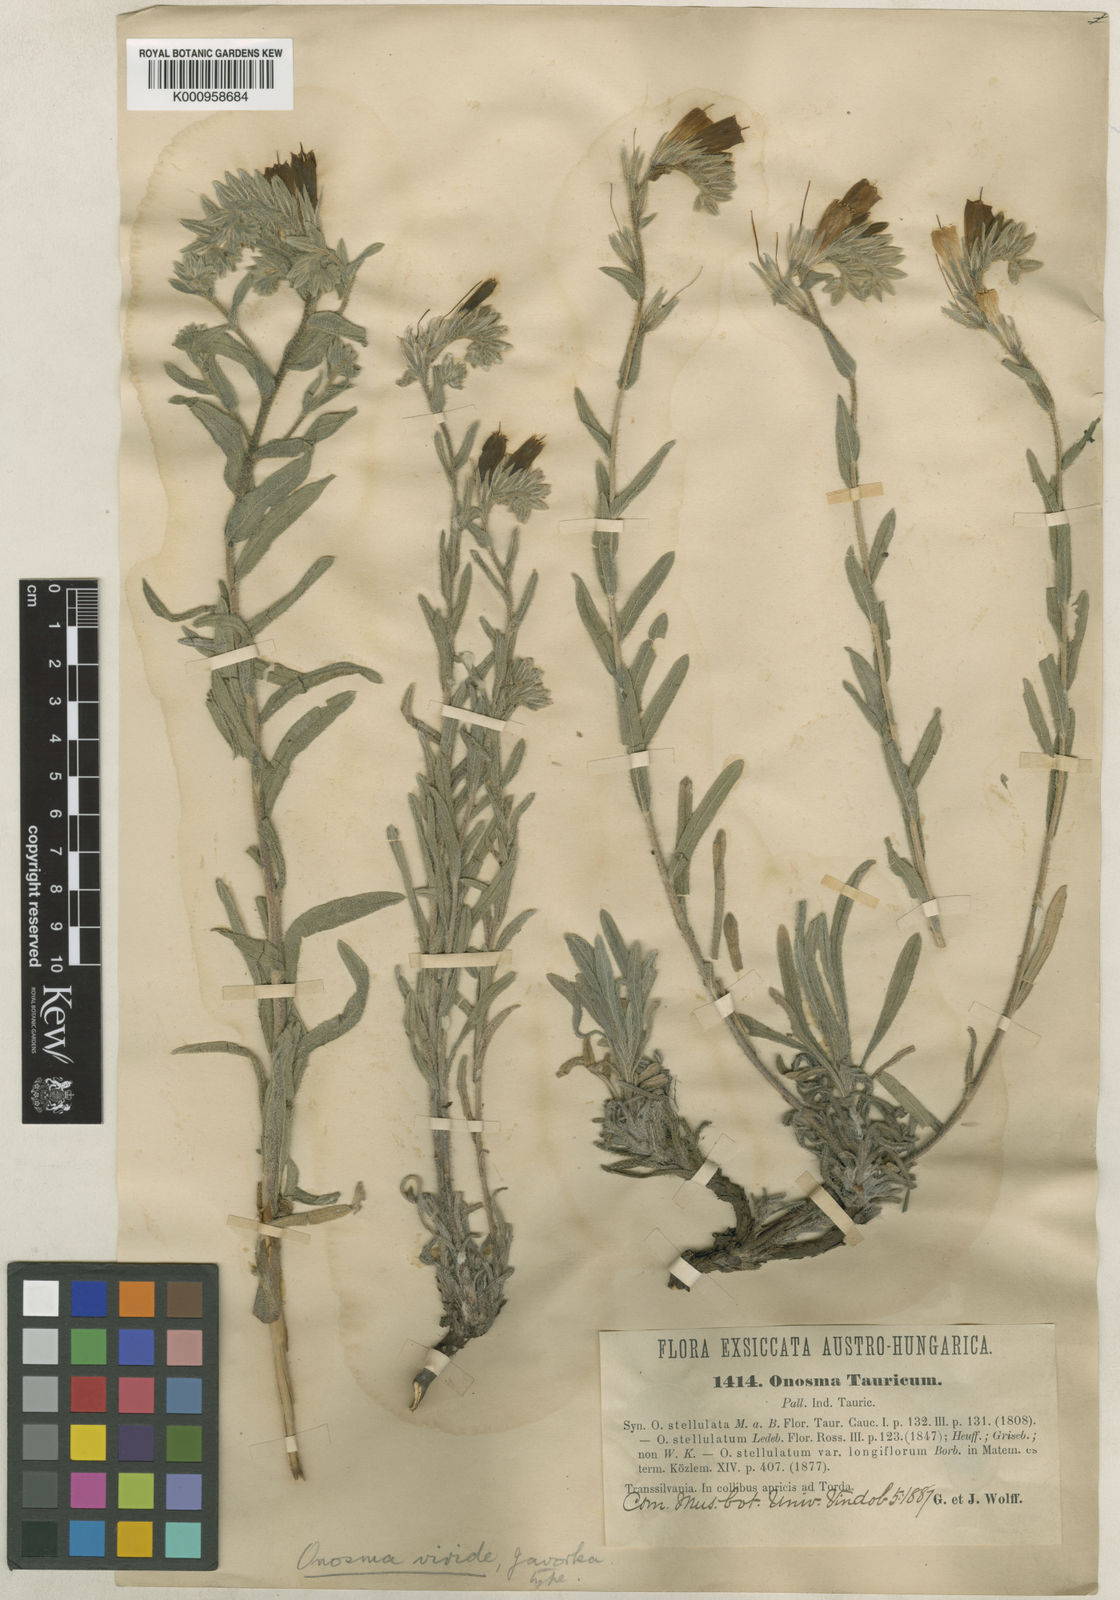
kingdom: Plantae
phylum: Tracheophyta
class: Magnoliopsida
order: Boraginales
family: Boraginaceae
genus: Onosma
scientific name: Onosma heterophylla
